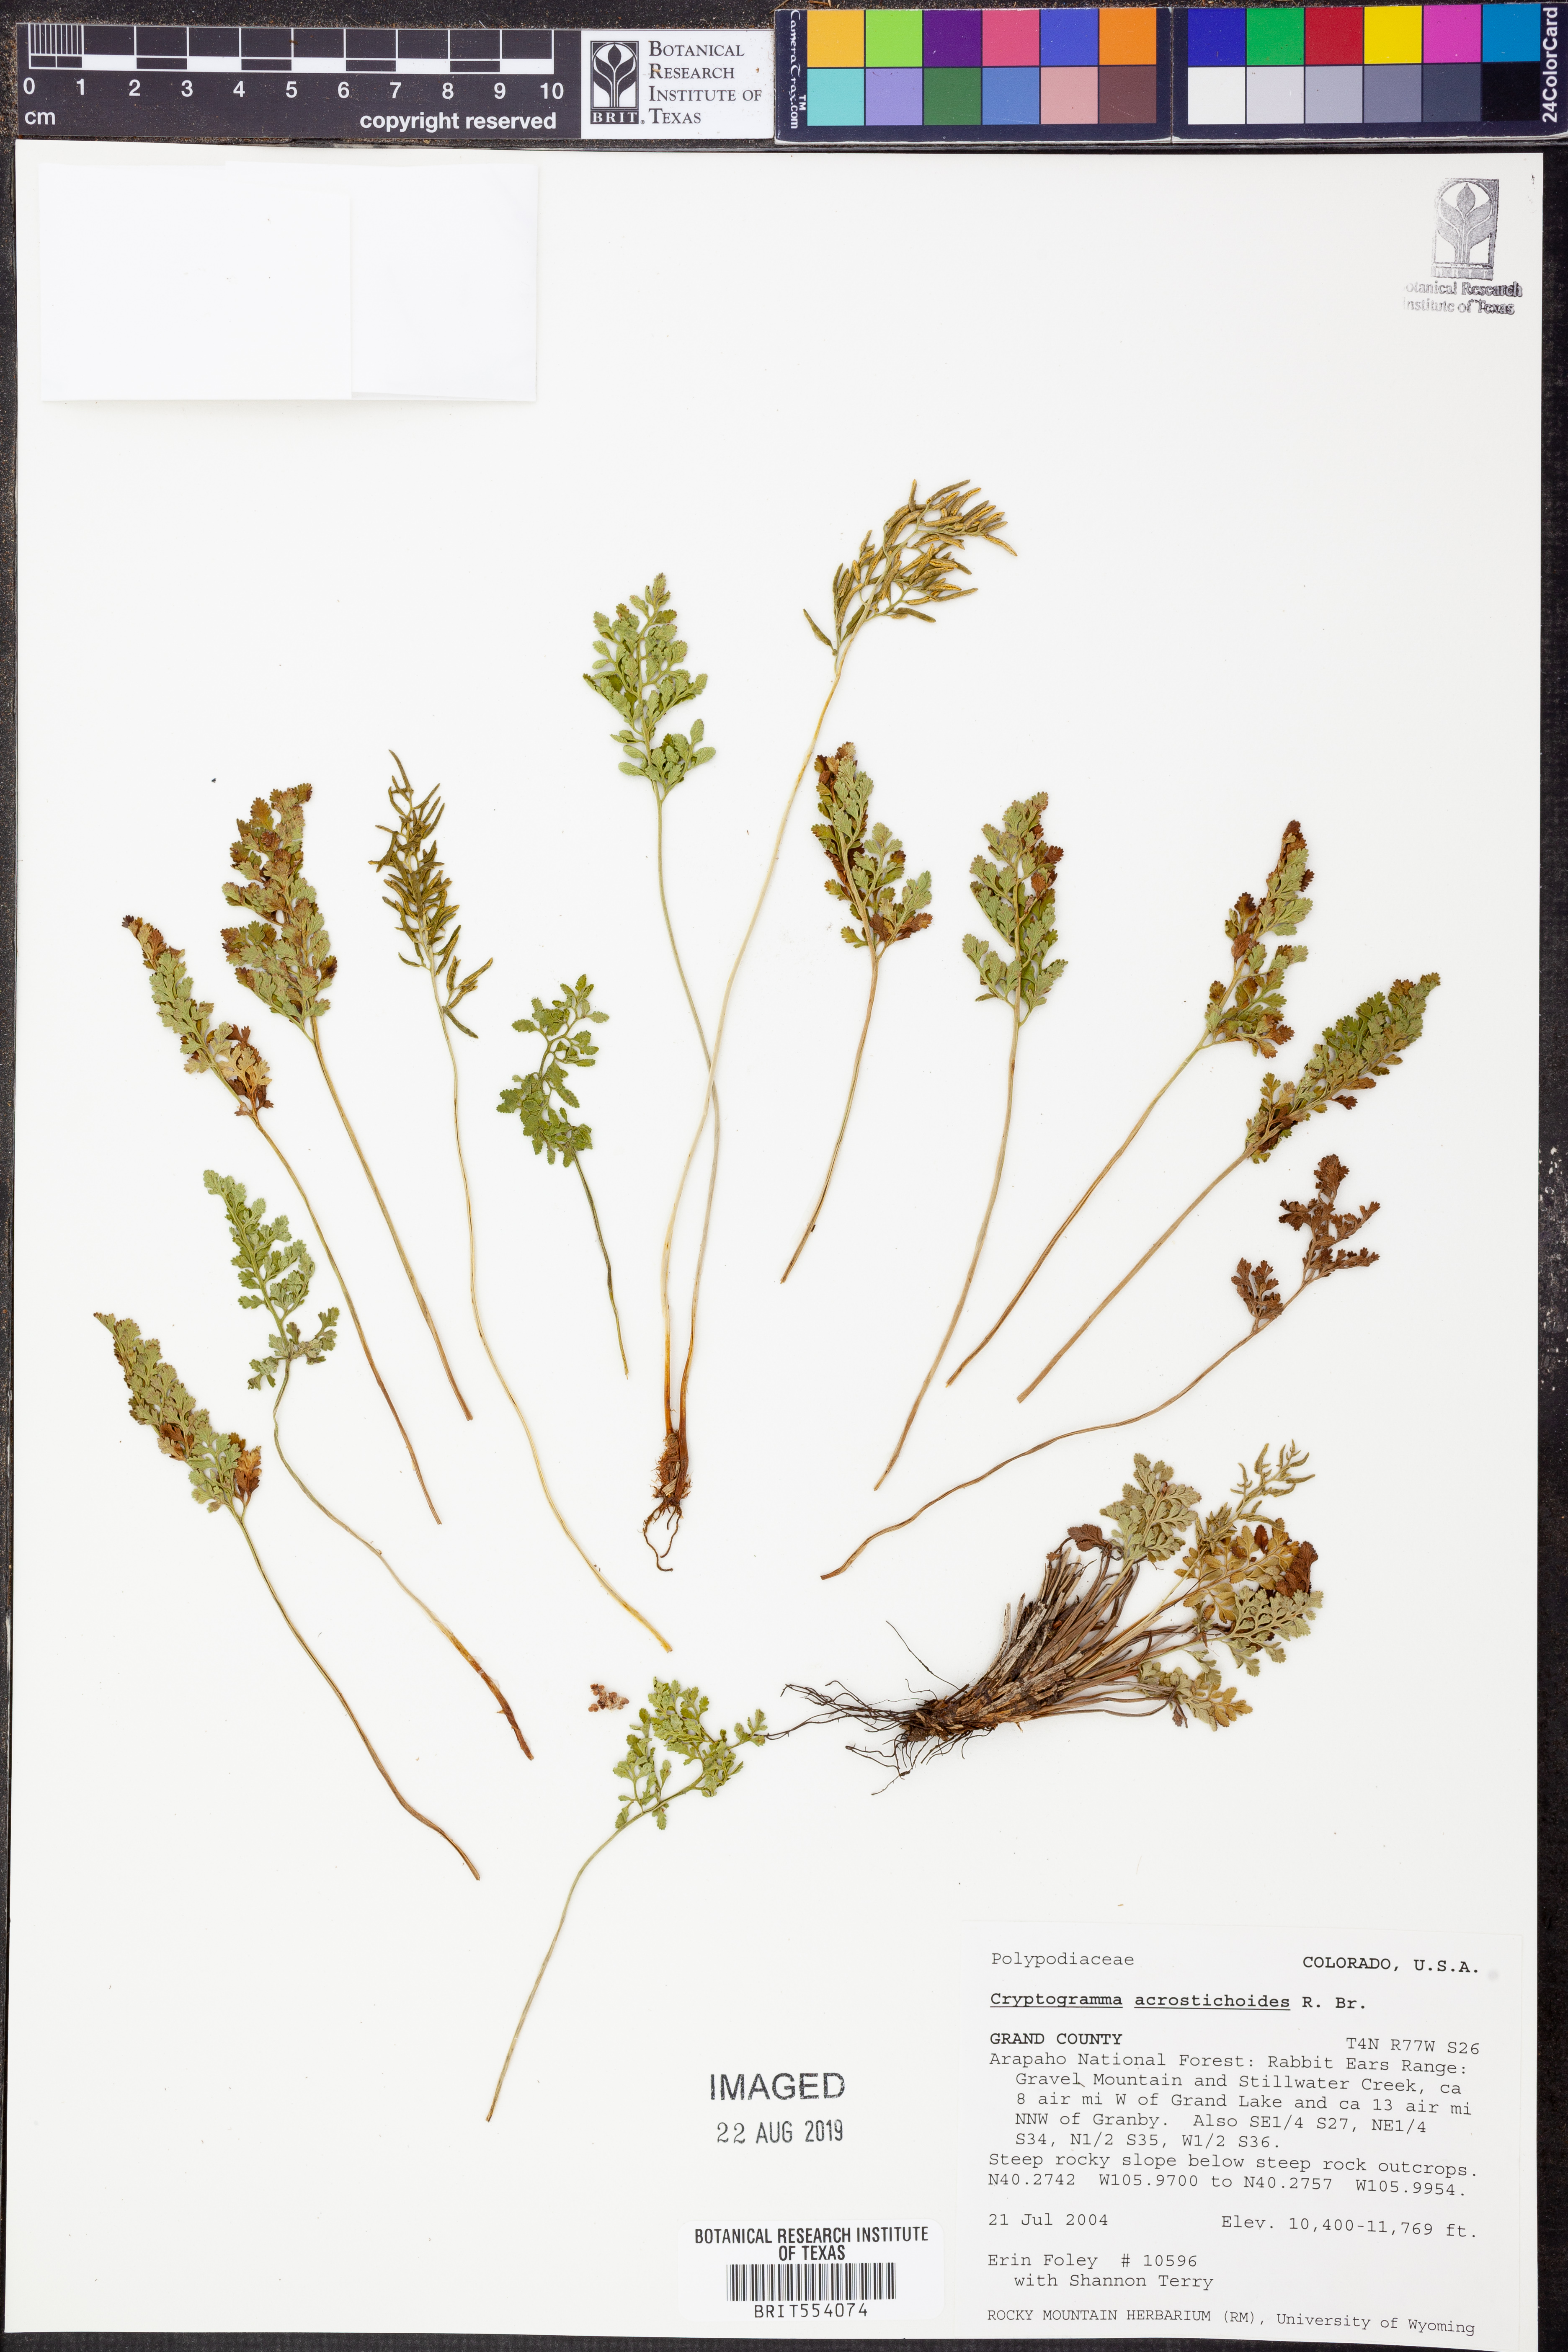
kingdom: Plantae
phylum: Tracheophyta
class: Polypodiopsida
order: Polypodiales
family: Pteridaceae
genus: Cryptogramma
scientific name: Cryptogramma acrostichoides
